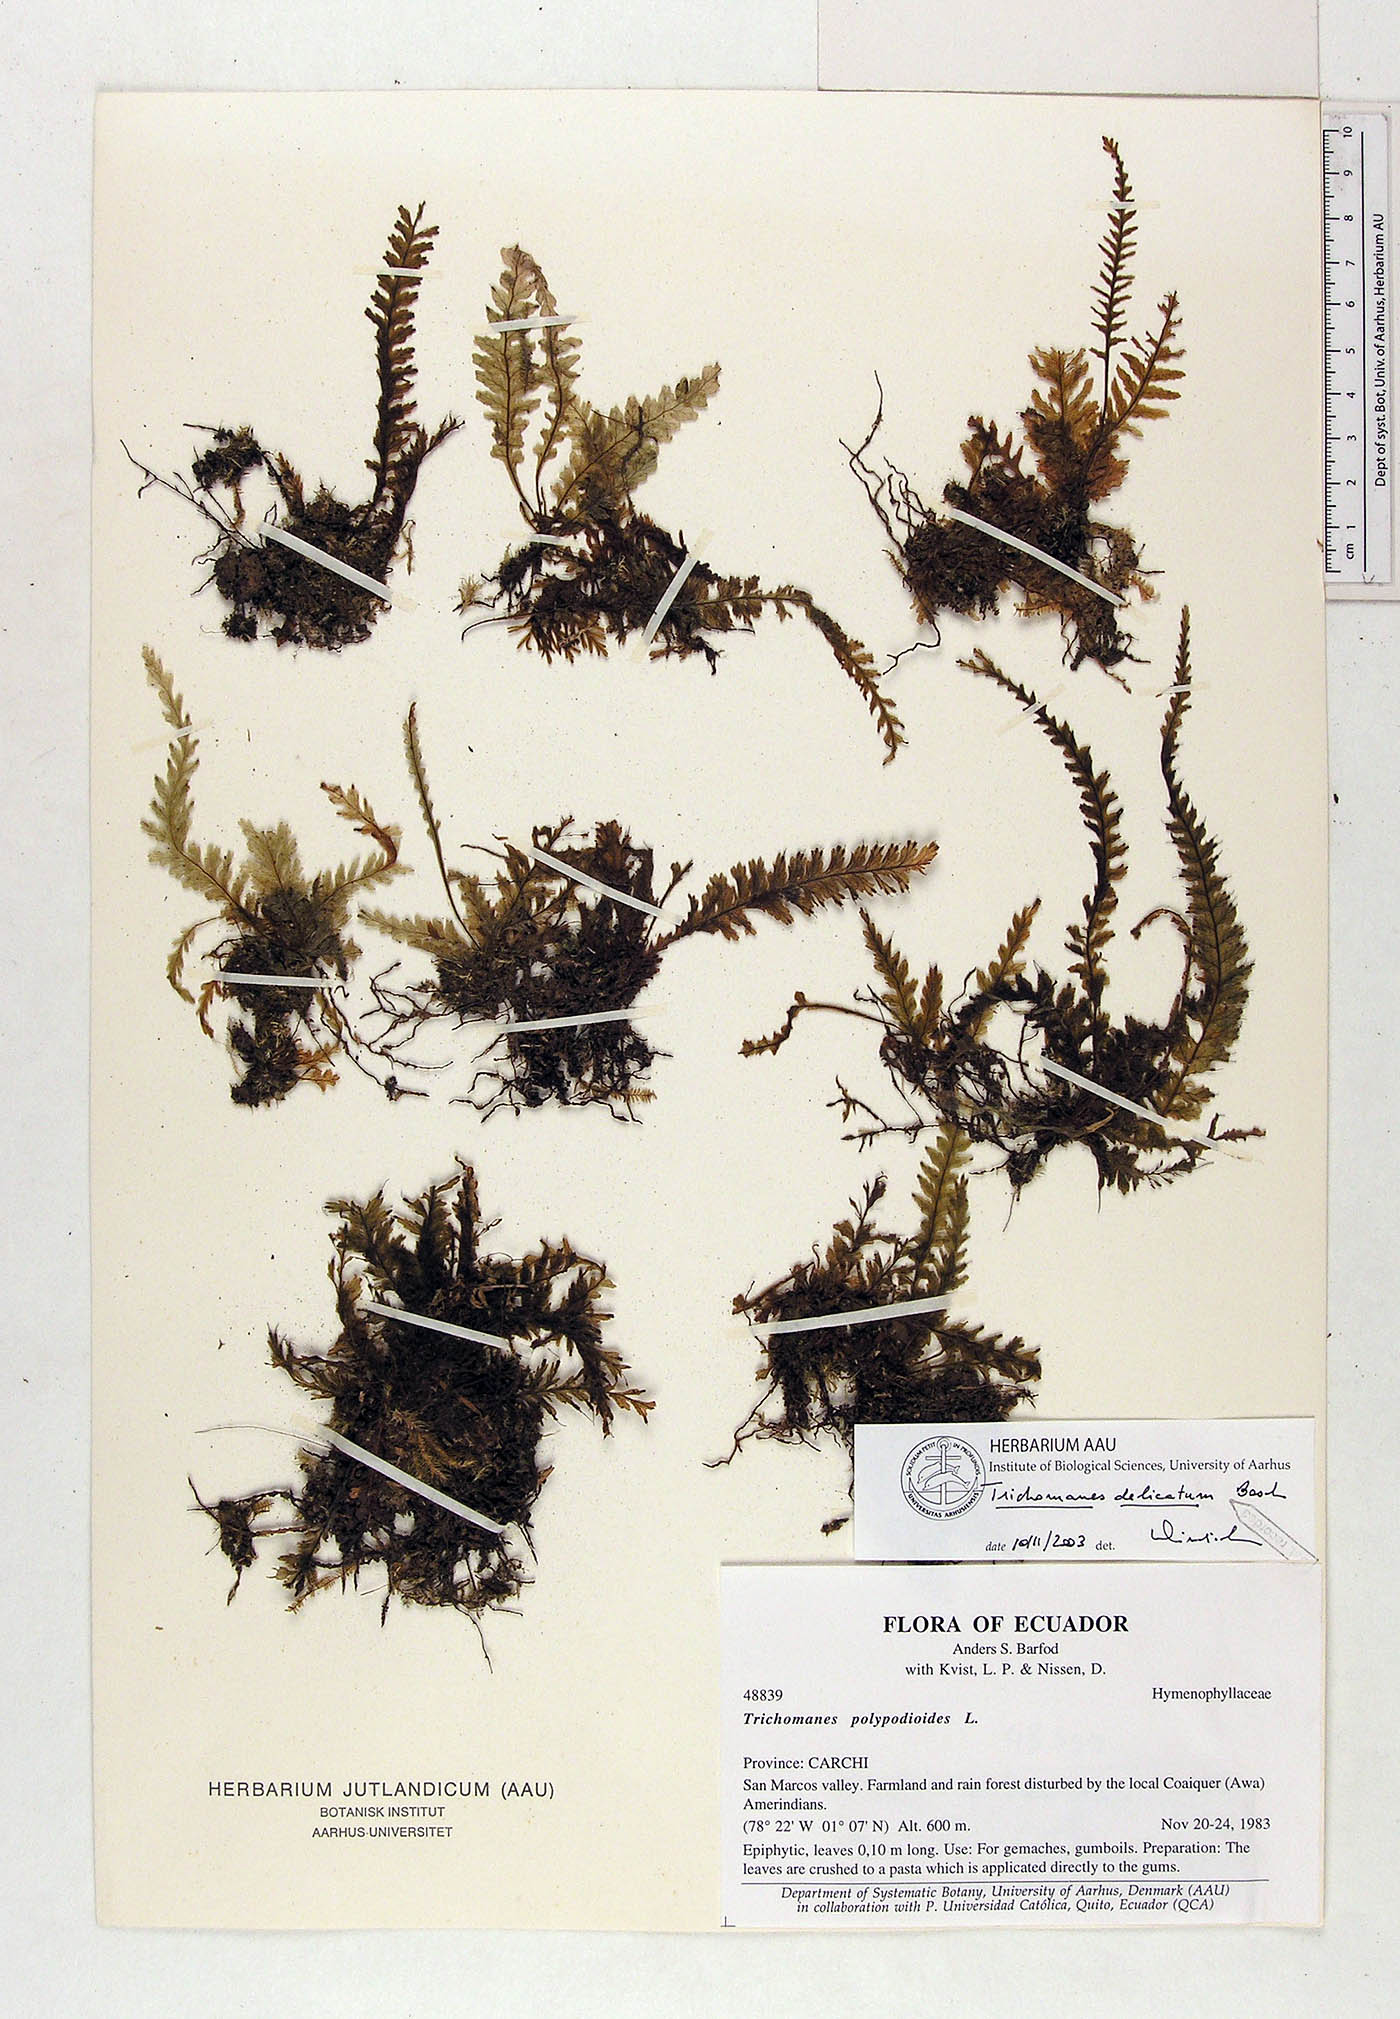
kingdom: Plantae
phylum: Tracheophyta
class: Polypodiopsida
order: Hymenophyllales
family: Hymenophyllaceae
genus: Trichomanes
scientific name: Trichomanes delicatum
